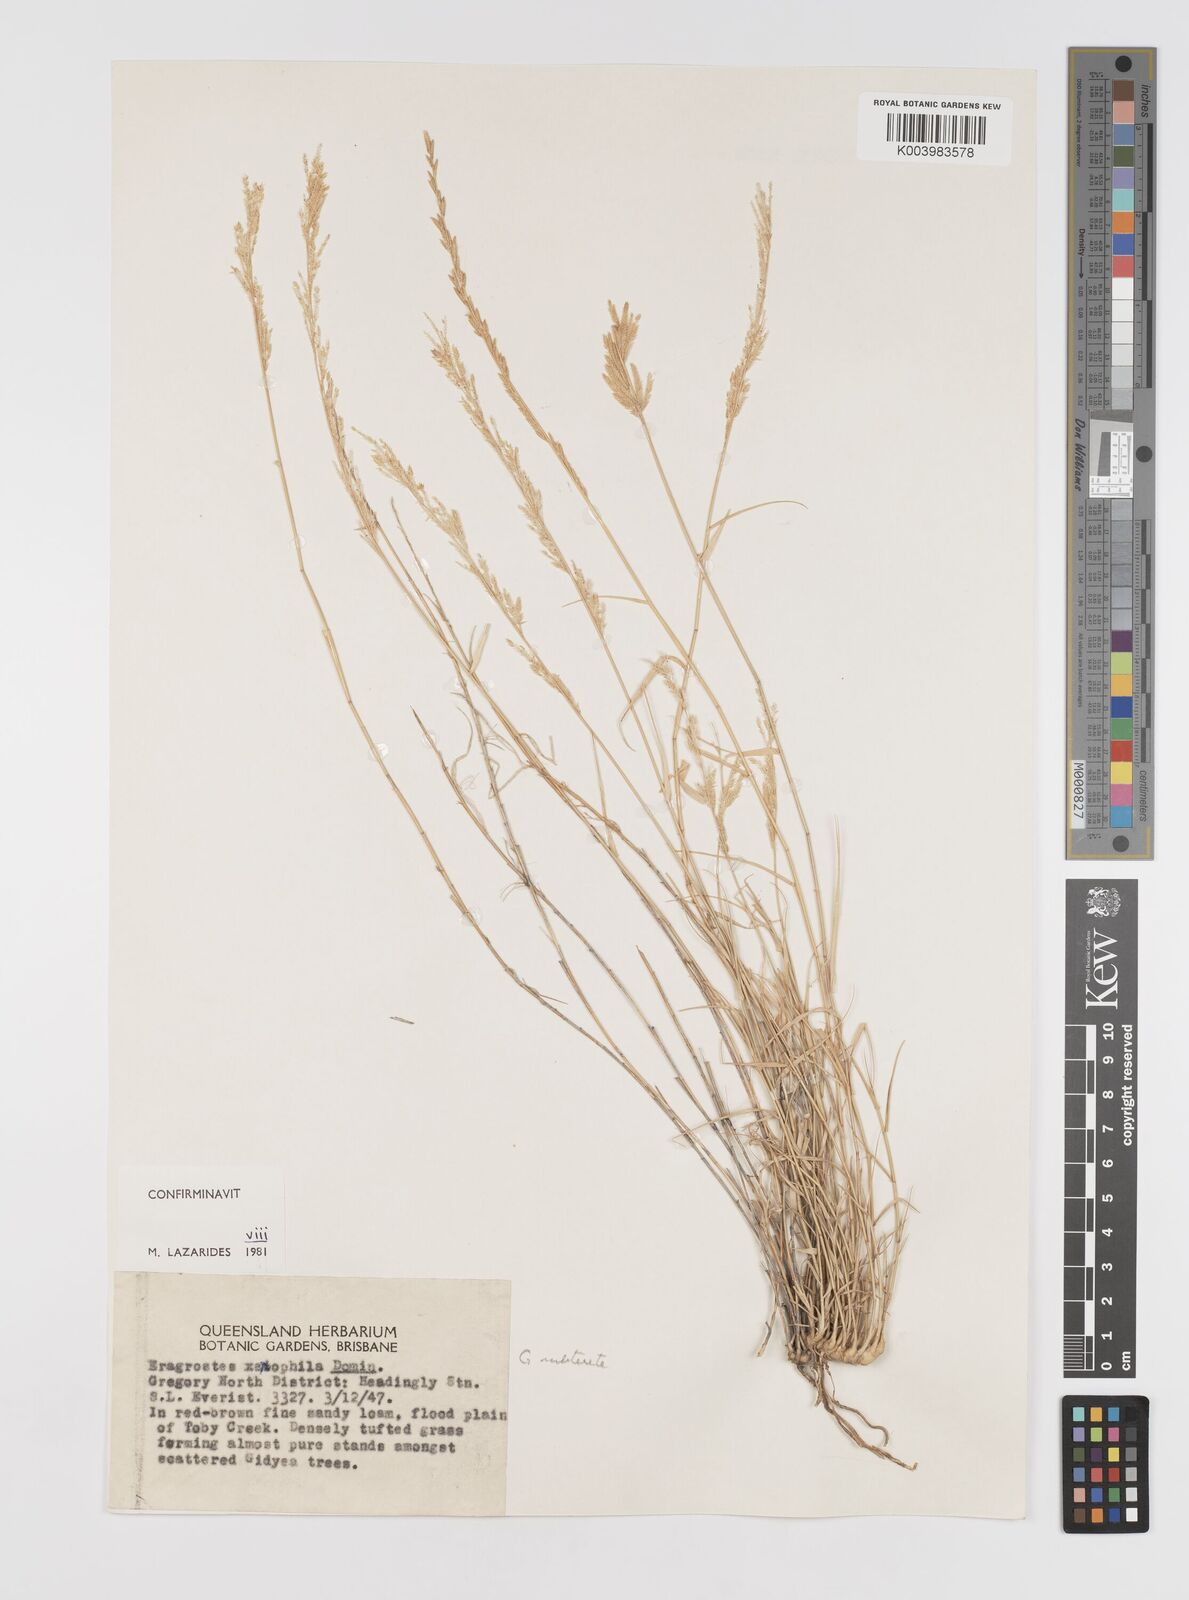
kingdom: Plantae
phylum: Tracheophyta
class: Liliopsida
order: Poales
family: Poaceae
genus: Eragrostis
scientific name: Eragrostis xerophila
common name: Wire wandarrie grass
